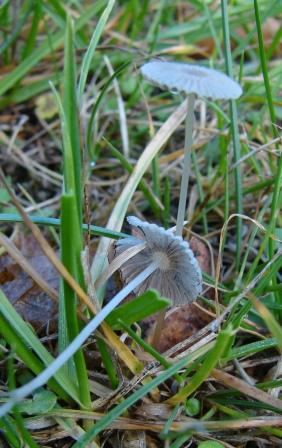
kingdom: Fungi
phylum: Basidiomycota
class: Agaricomycetes
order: Agaricales
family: Psathyrellaceae
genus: Parasola
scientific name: Parasola plicatilis
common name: plæne-hjulhat
